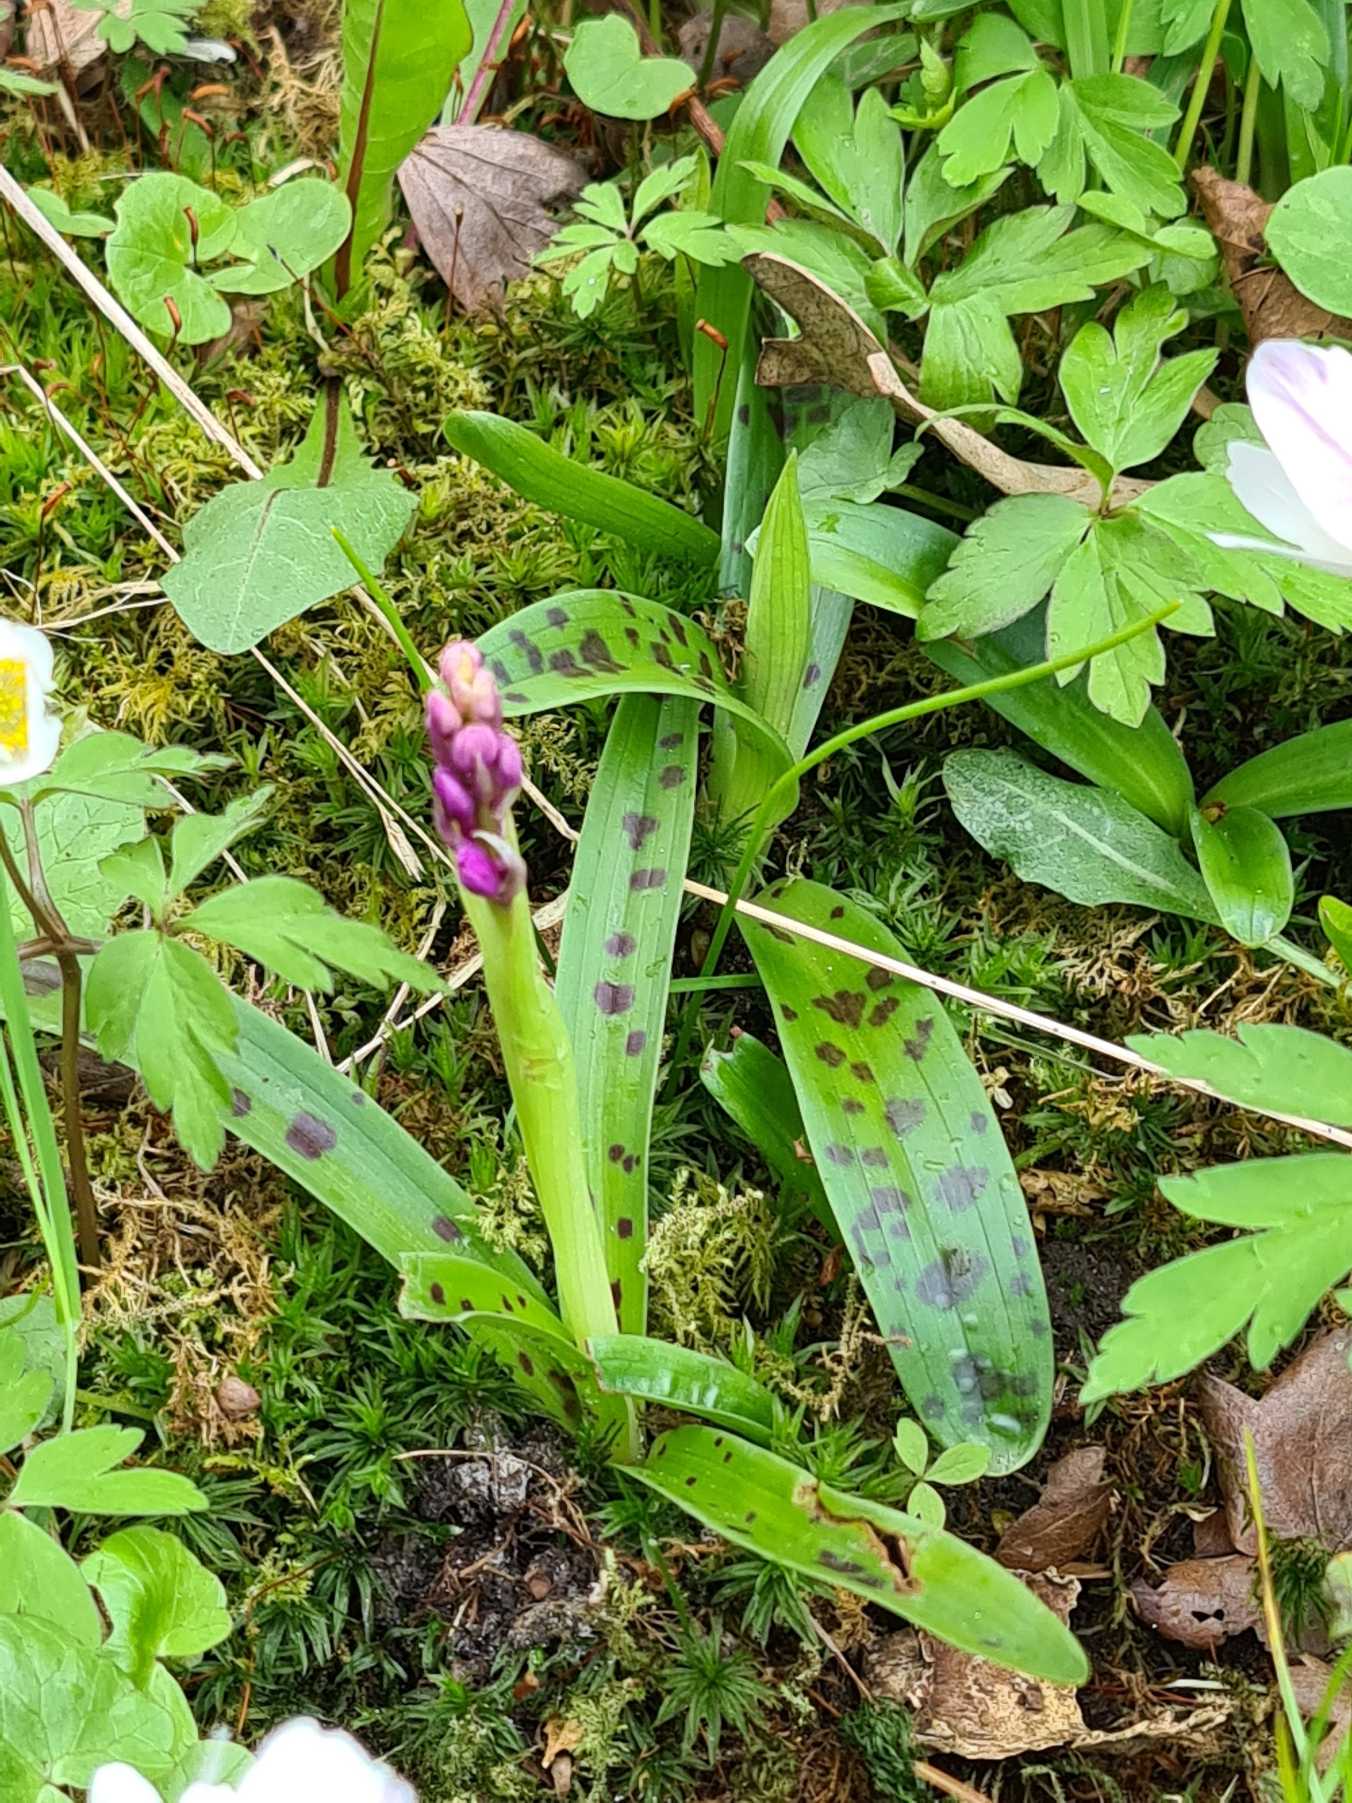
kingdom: Plantae
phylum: Tracheophyta
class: Liliopsida
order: Asparagales
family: Orchidaceae
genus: Orchis
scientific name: Orchis mascula
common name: Tyndakset gøgeurt
